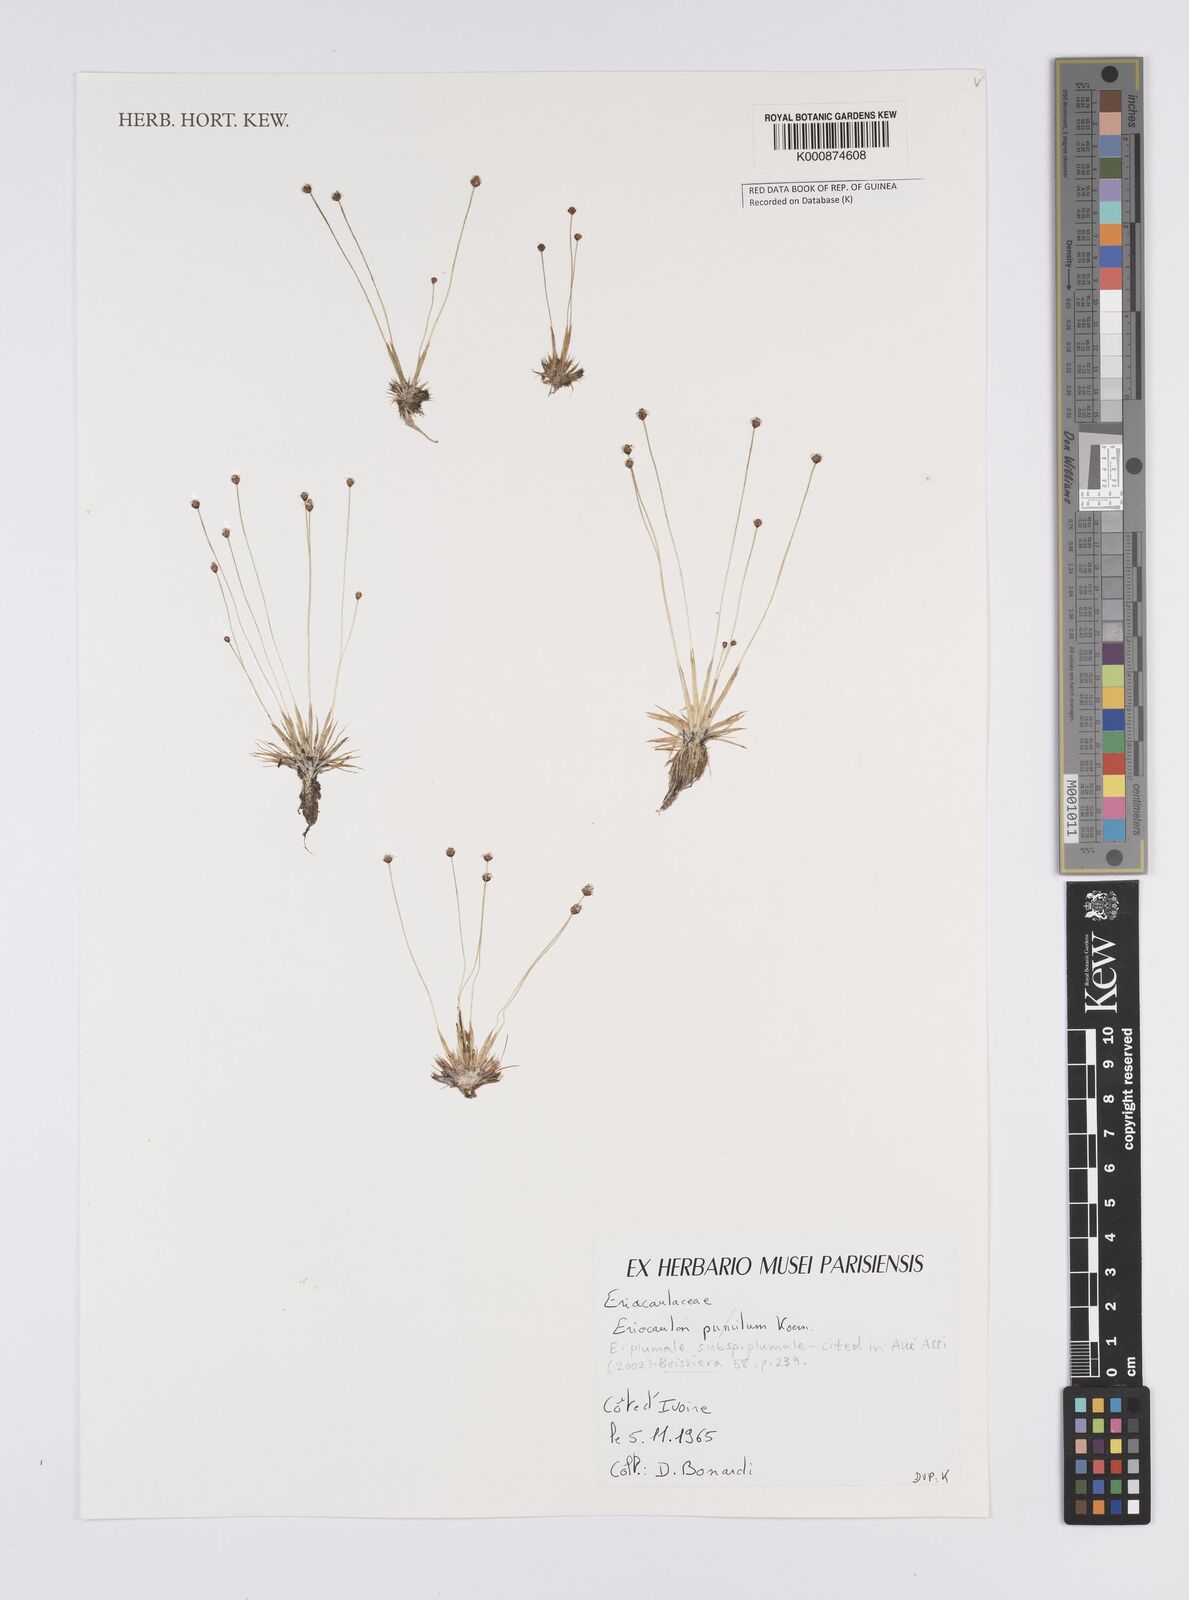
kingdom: Plantae
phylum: Tracheophyta
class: Liliopsida
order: Poales
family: Eriocaulaceae
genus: Eriocaulon
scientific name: Eriocaulon plumale
